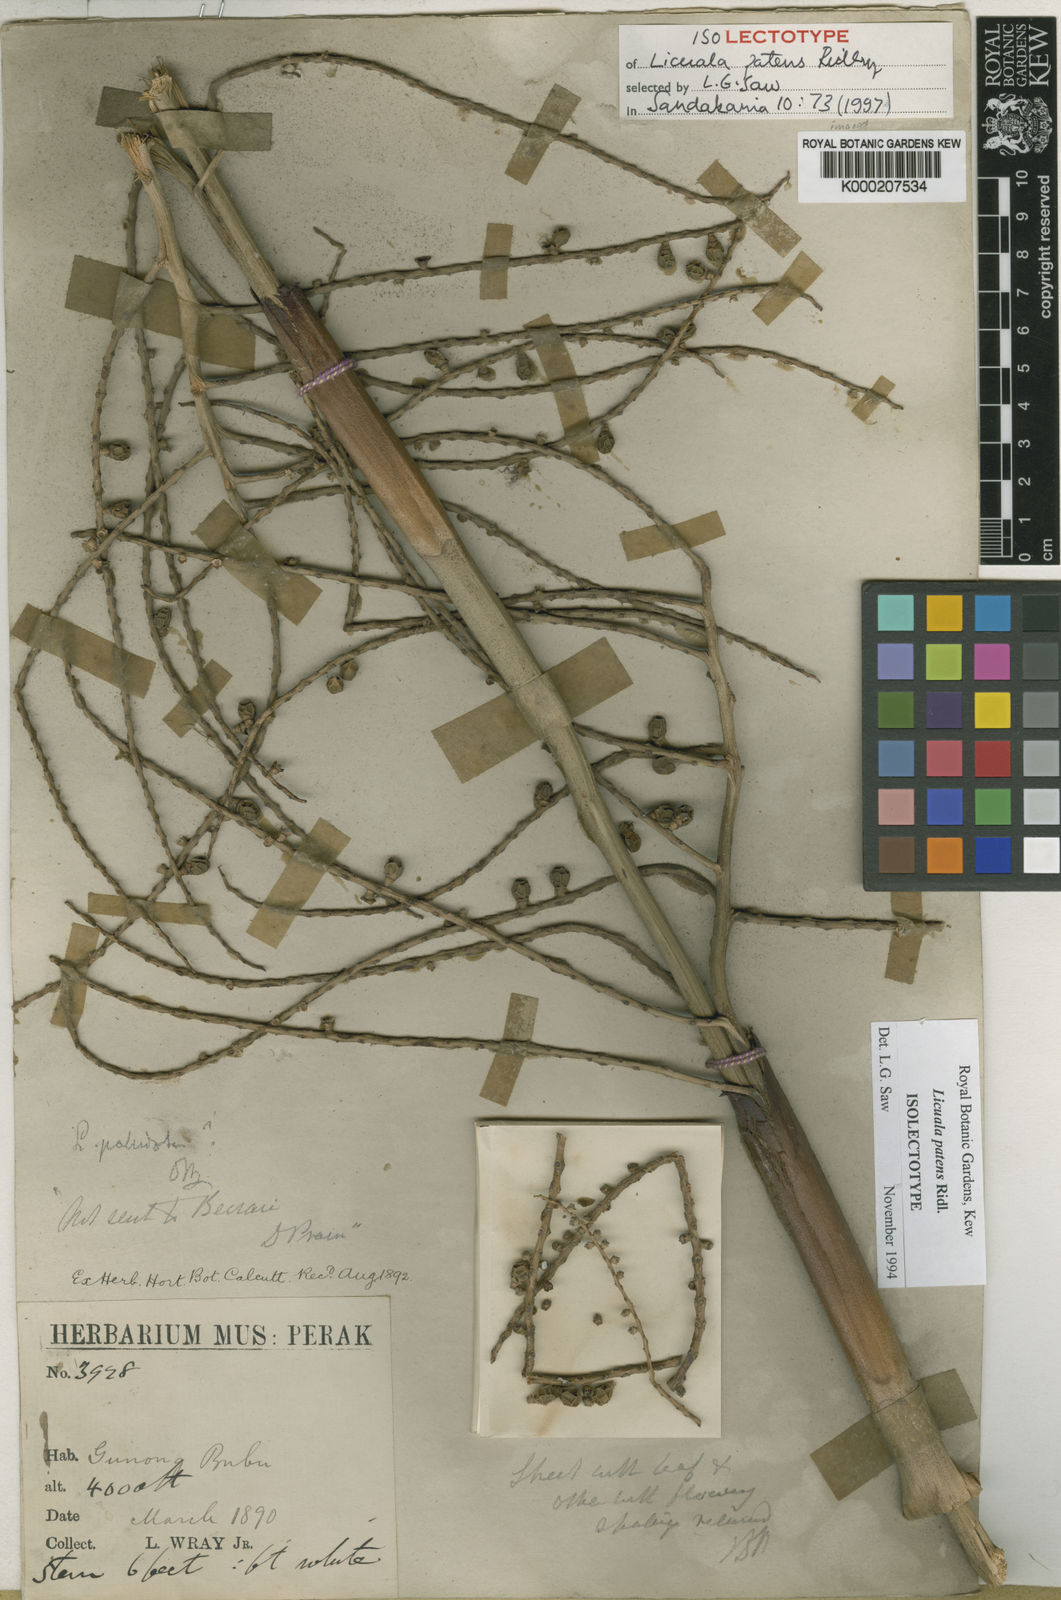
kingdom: Plantae
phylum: Tracheophyta
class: Liliopsida
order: Arecales
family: Arecaceae
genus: Licuala
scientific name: Licuala patens
